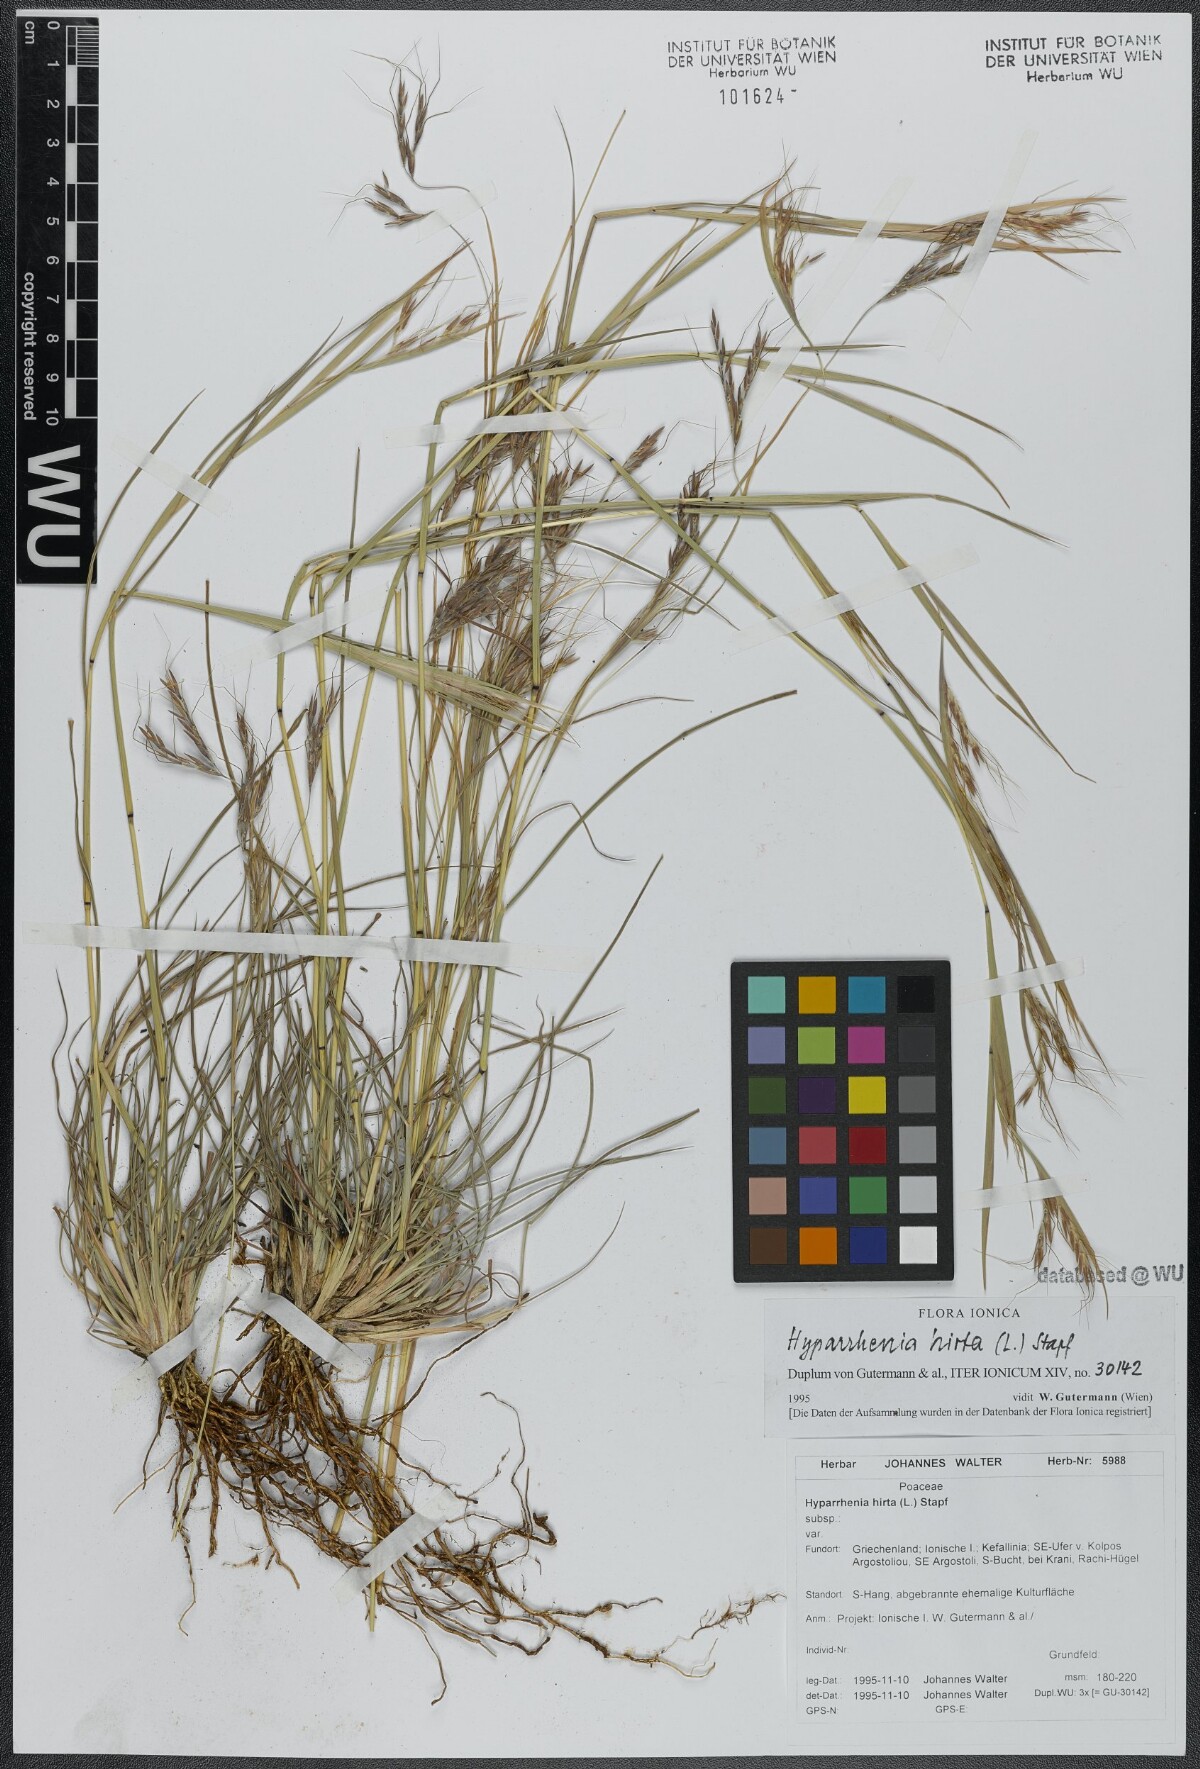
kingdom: Plantae
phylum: Tracheophyta
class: Liliopsida
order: Poales
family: Poaceae
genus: Hyparrhenia
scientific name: Hyparrhenia hirta
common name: Thatching grass
